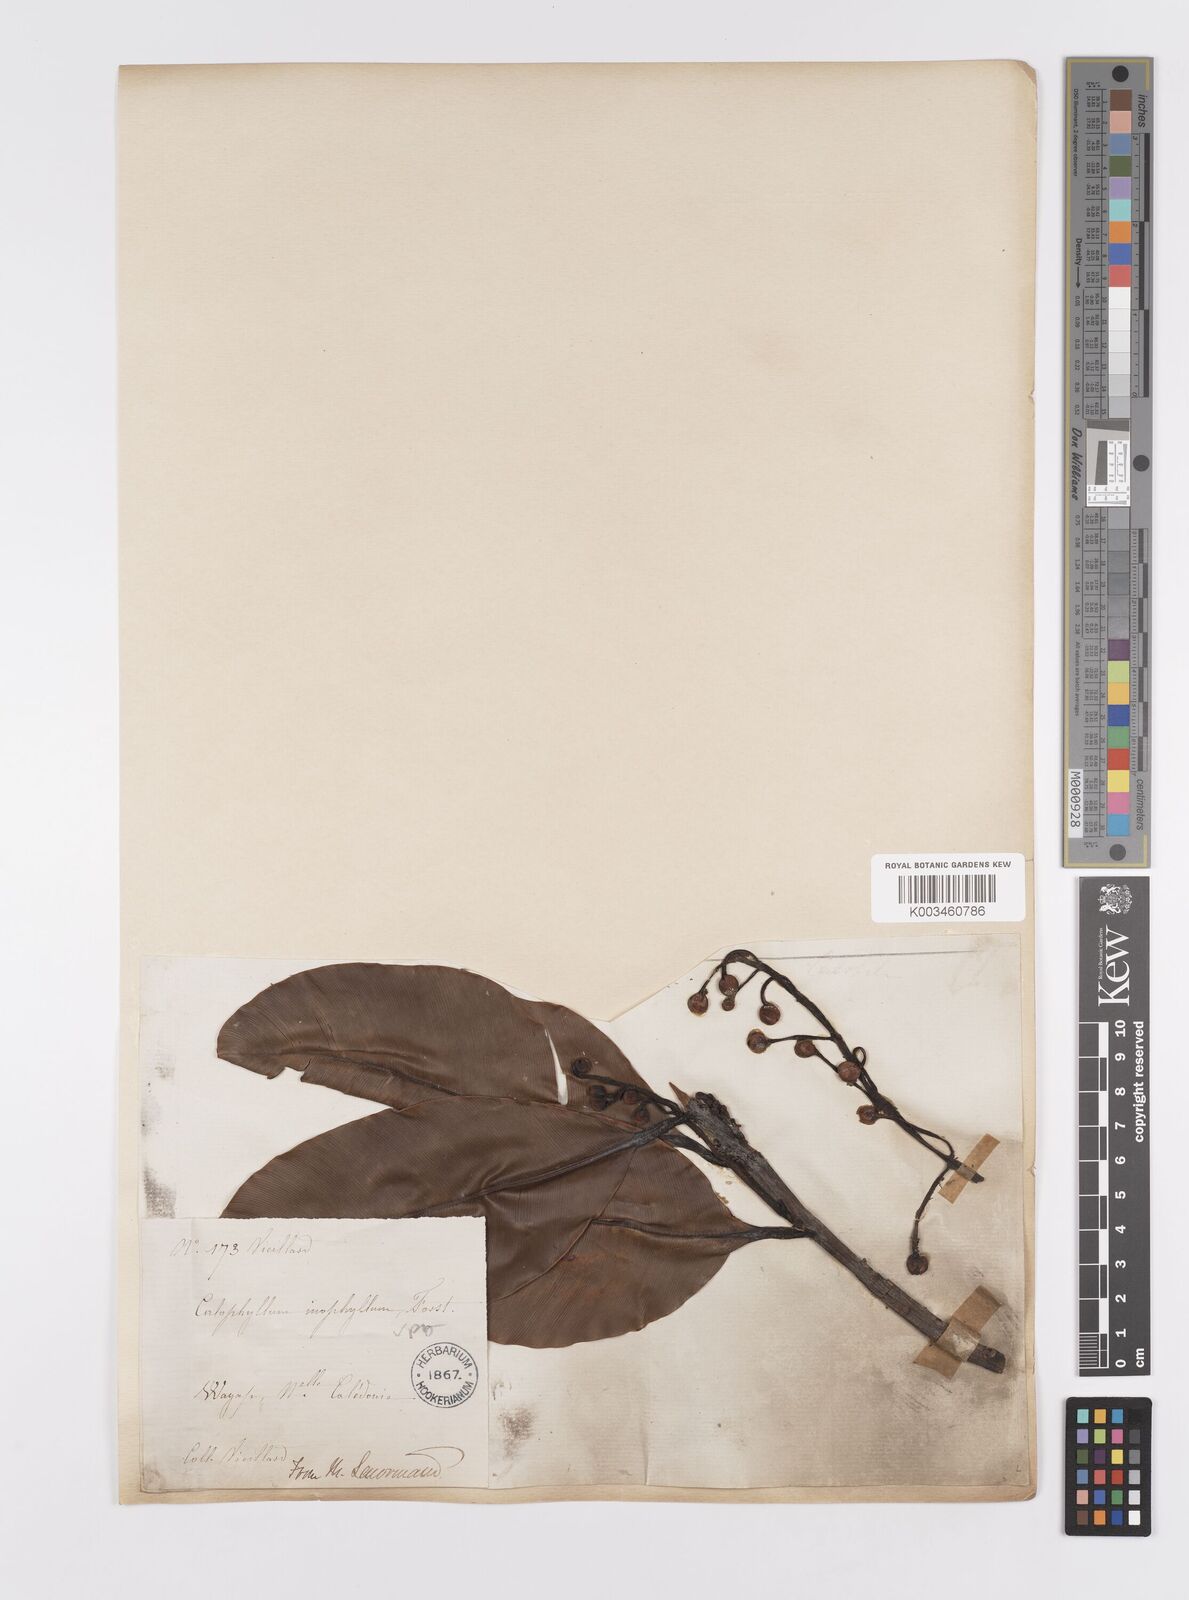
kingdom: Plantae
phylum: Tracheophyta
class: Magnoliopsida
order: Malpighiales
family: Calophyllaceae
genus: Calophyllum
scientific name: Calophyllum inophyllum
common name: Alexandrian laurel
